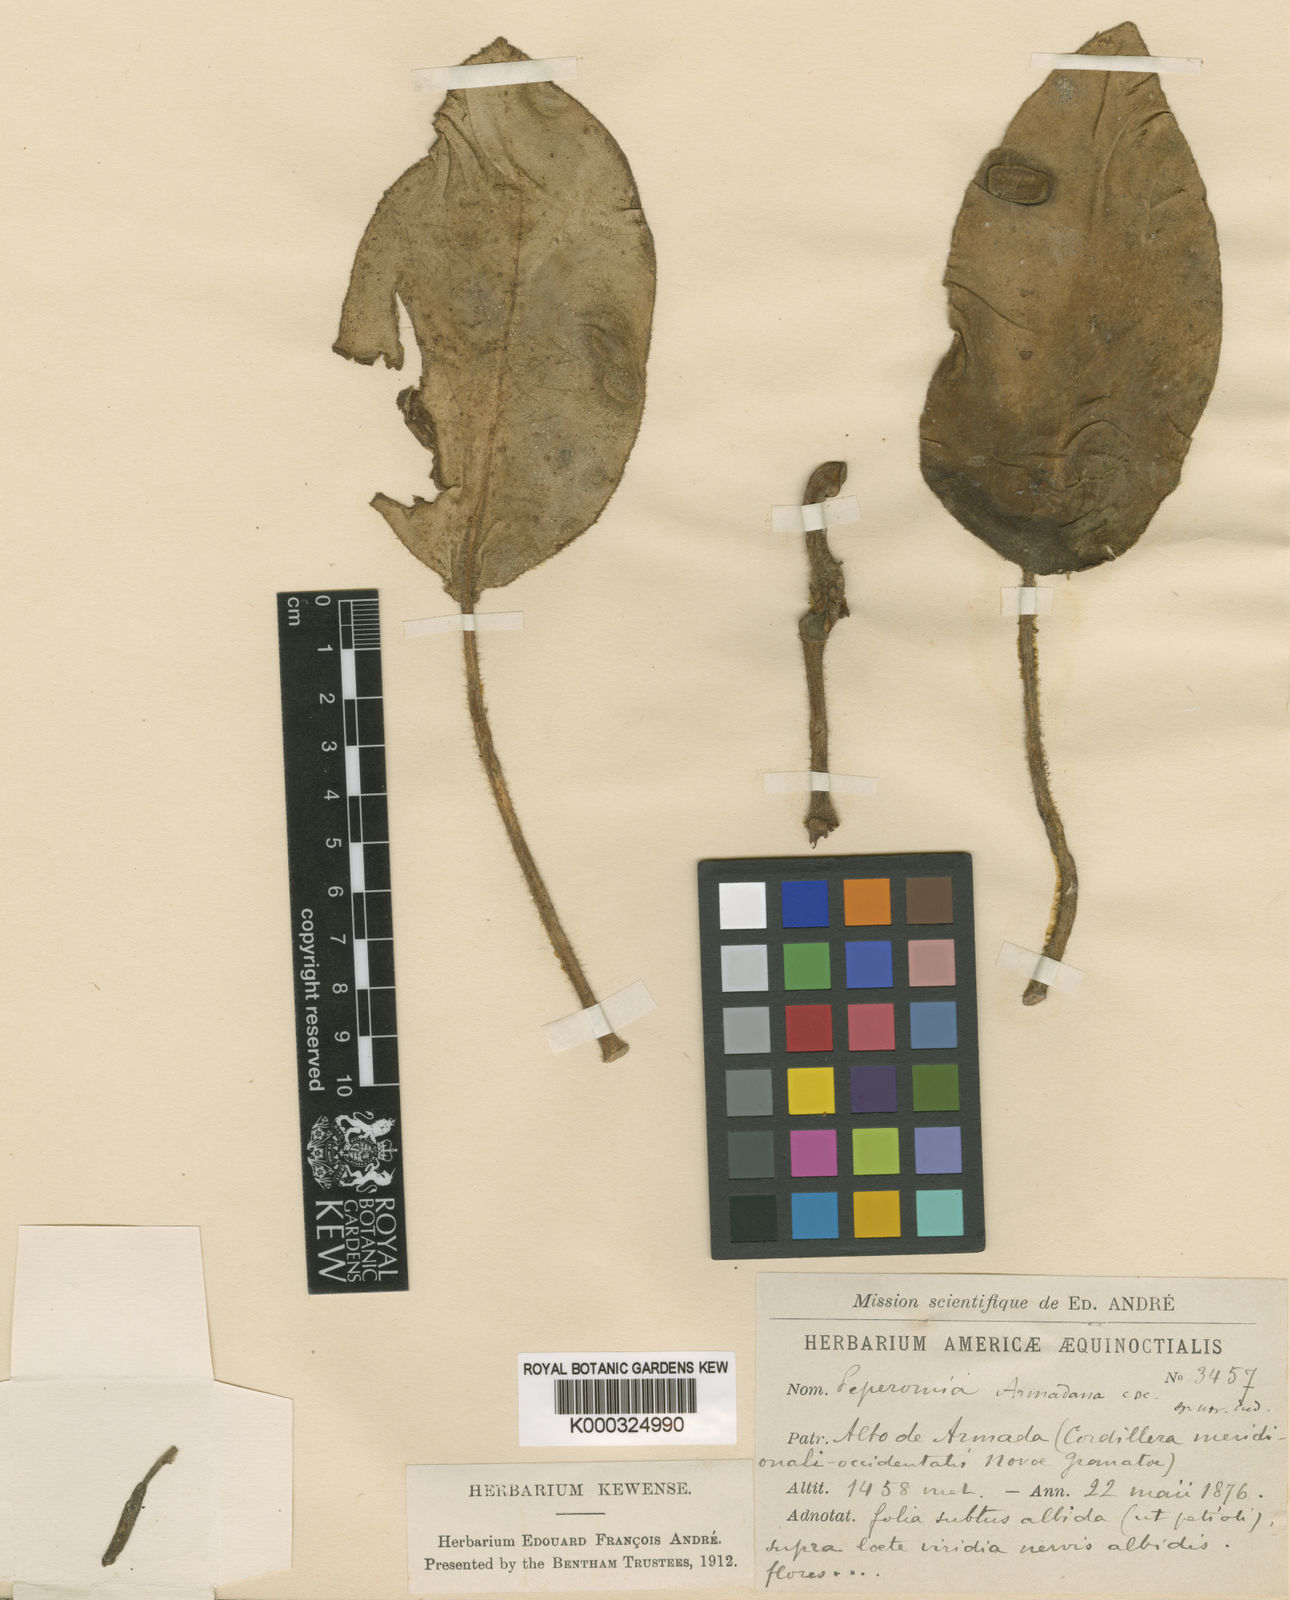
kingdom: Plantae
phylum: Tracheophyta
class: Magnoliopsida
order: Piperales
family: Piperaceae
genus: Peperomia
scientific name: Peperomia armadana
